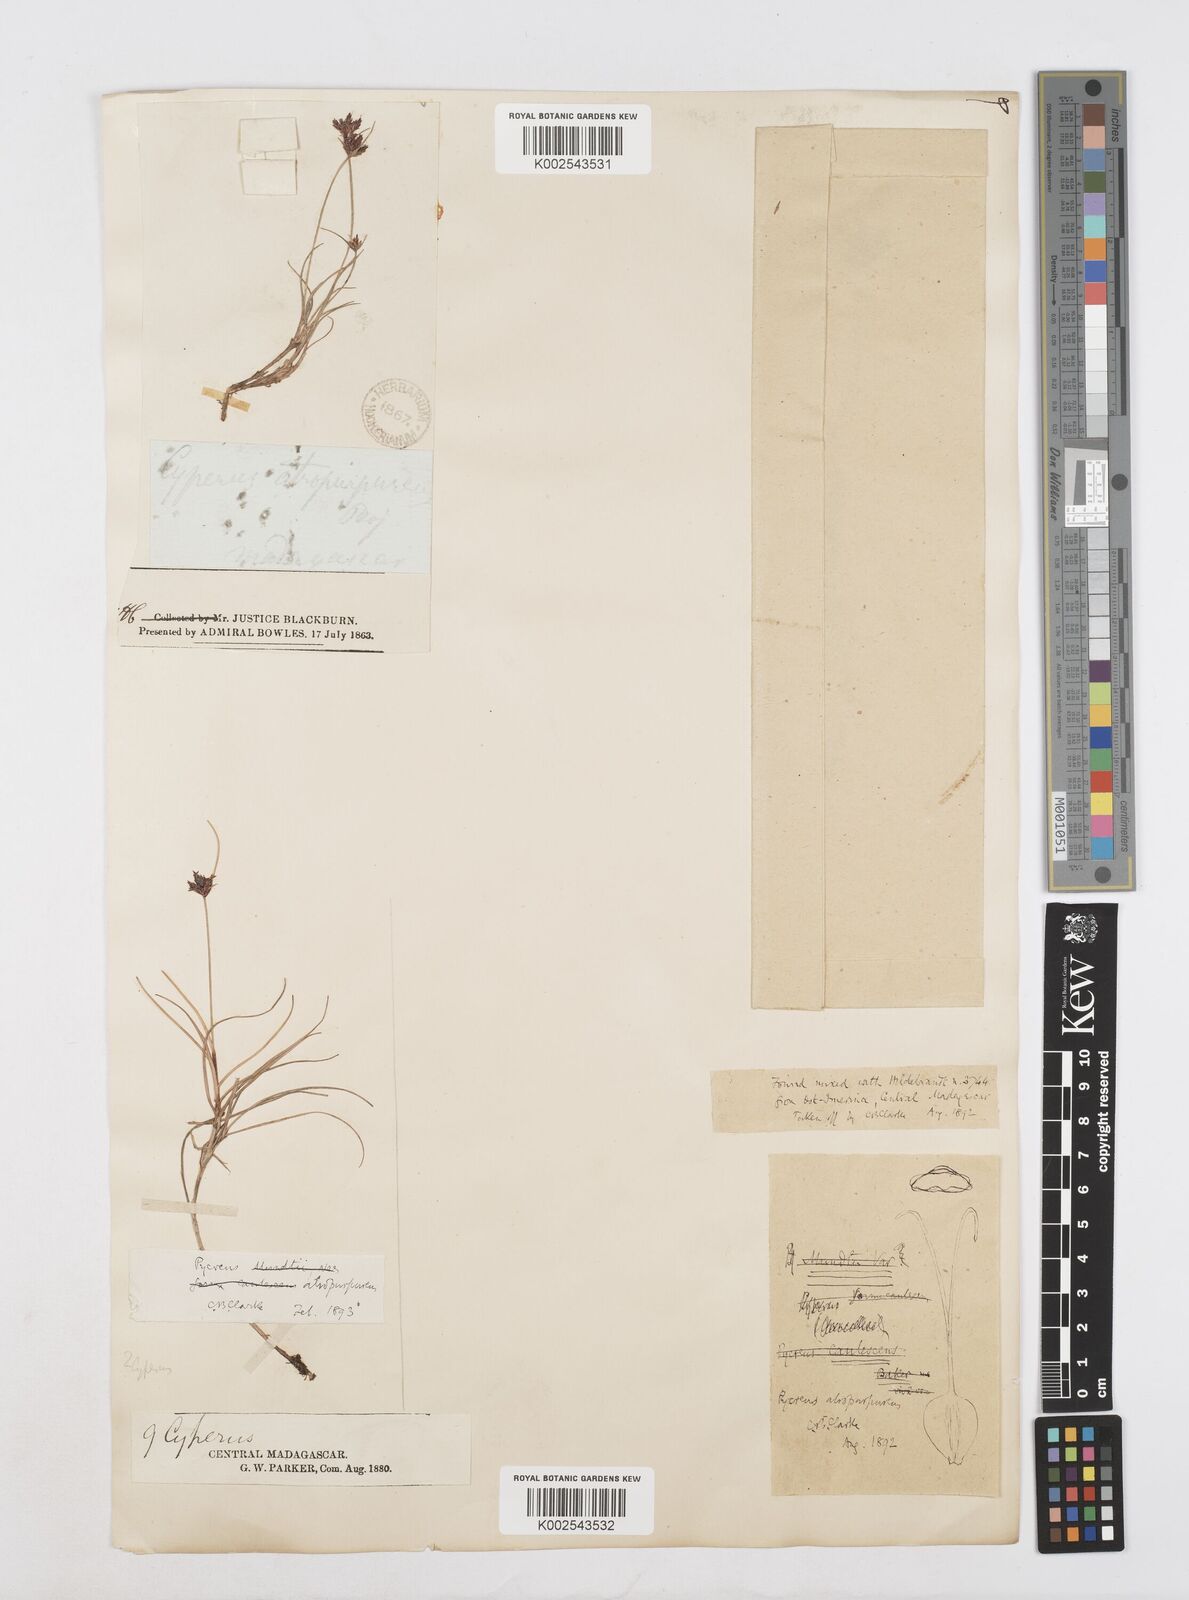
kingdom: Plantae
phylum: Tracheophyta
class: Liliopsida
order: Poales
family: Cyperaceae
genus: Cyperus
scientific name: Cyperus chermezonii
